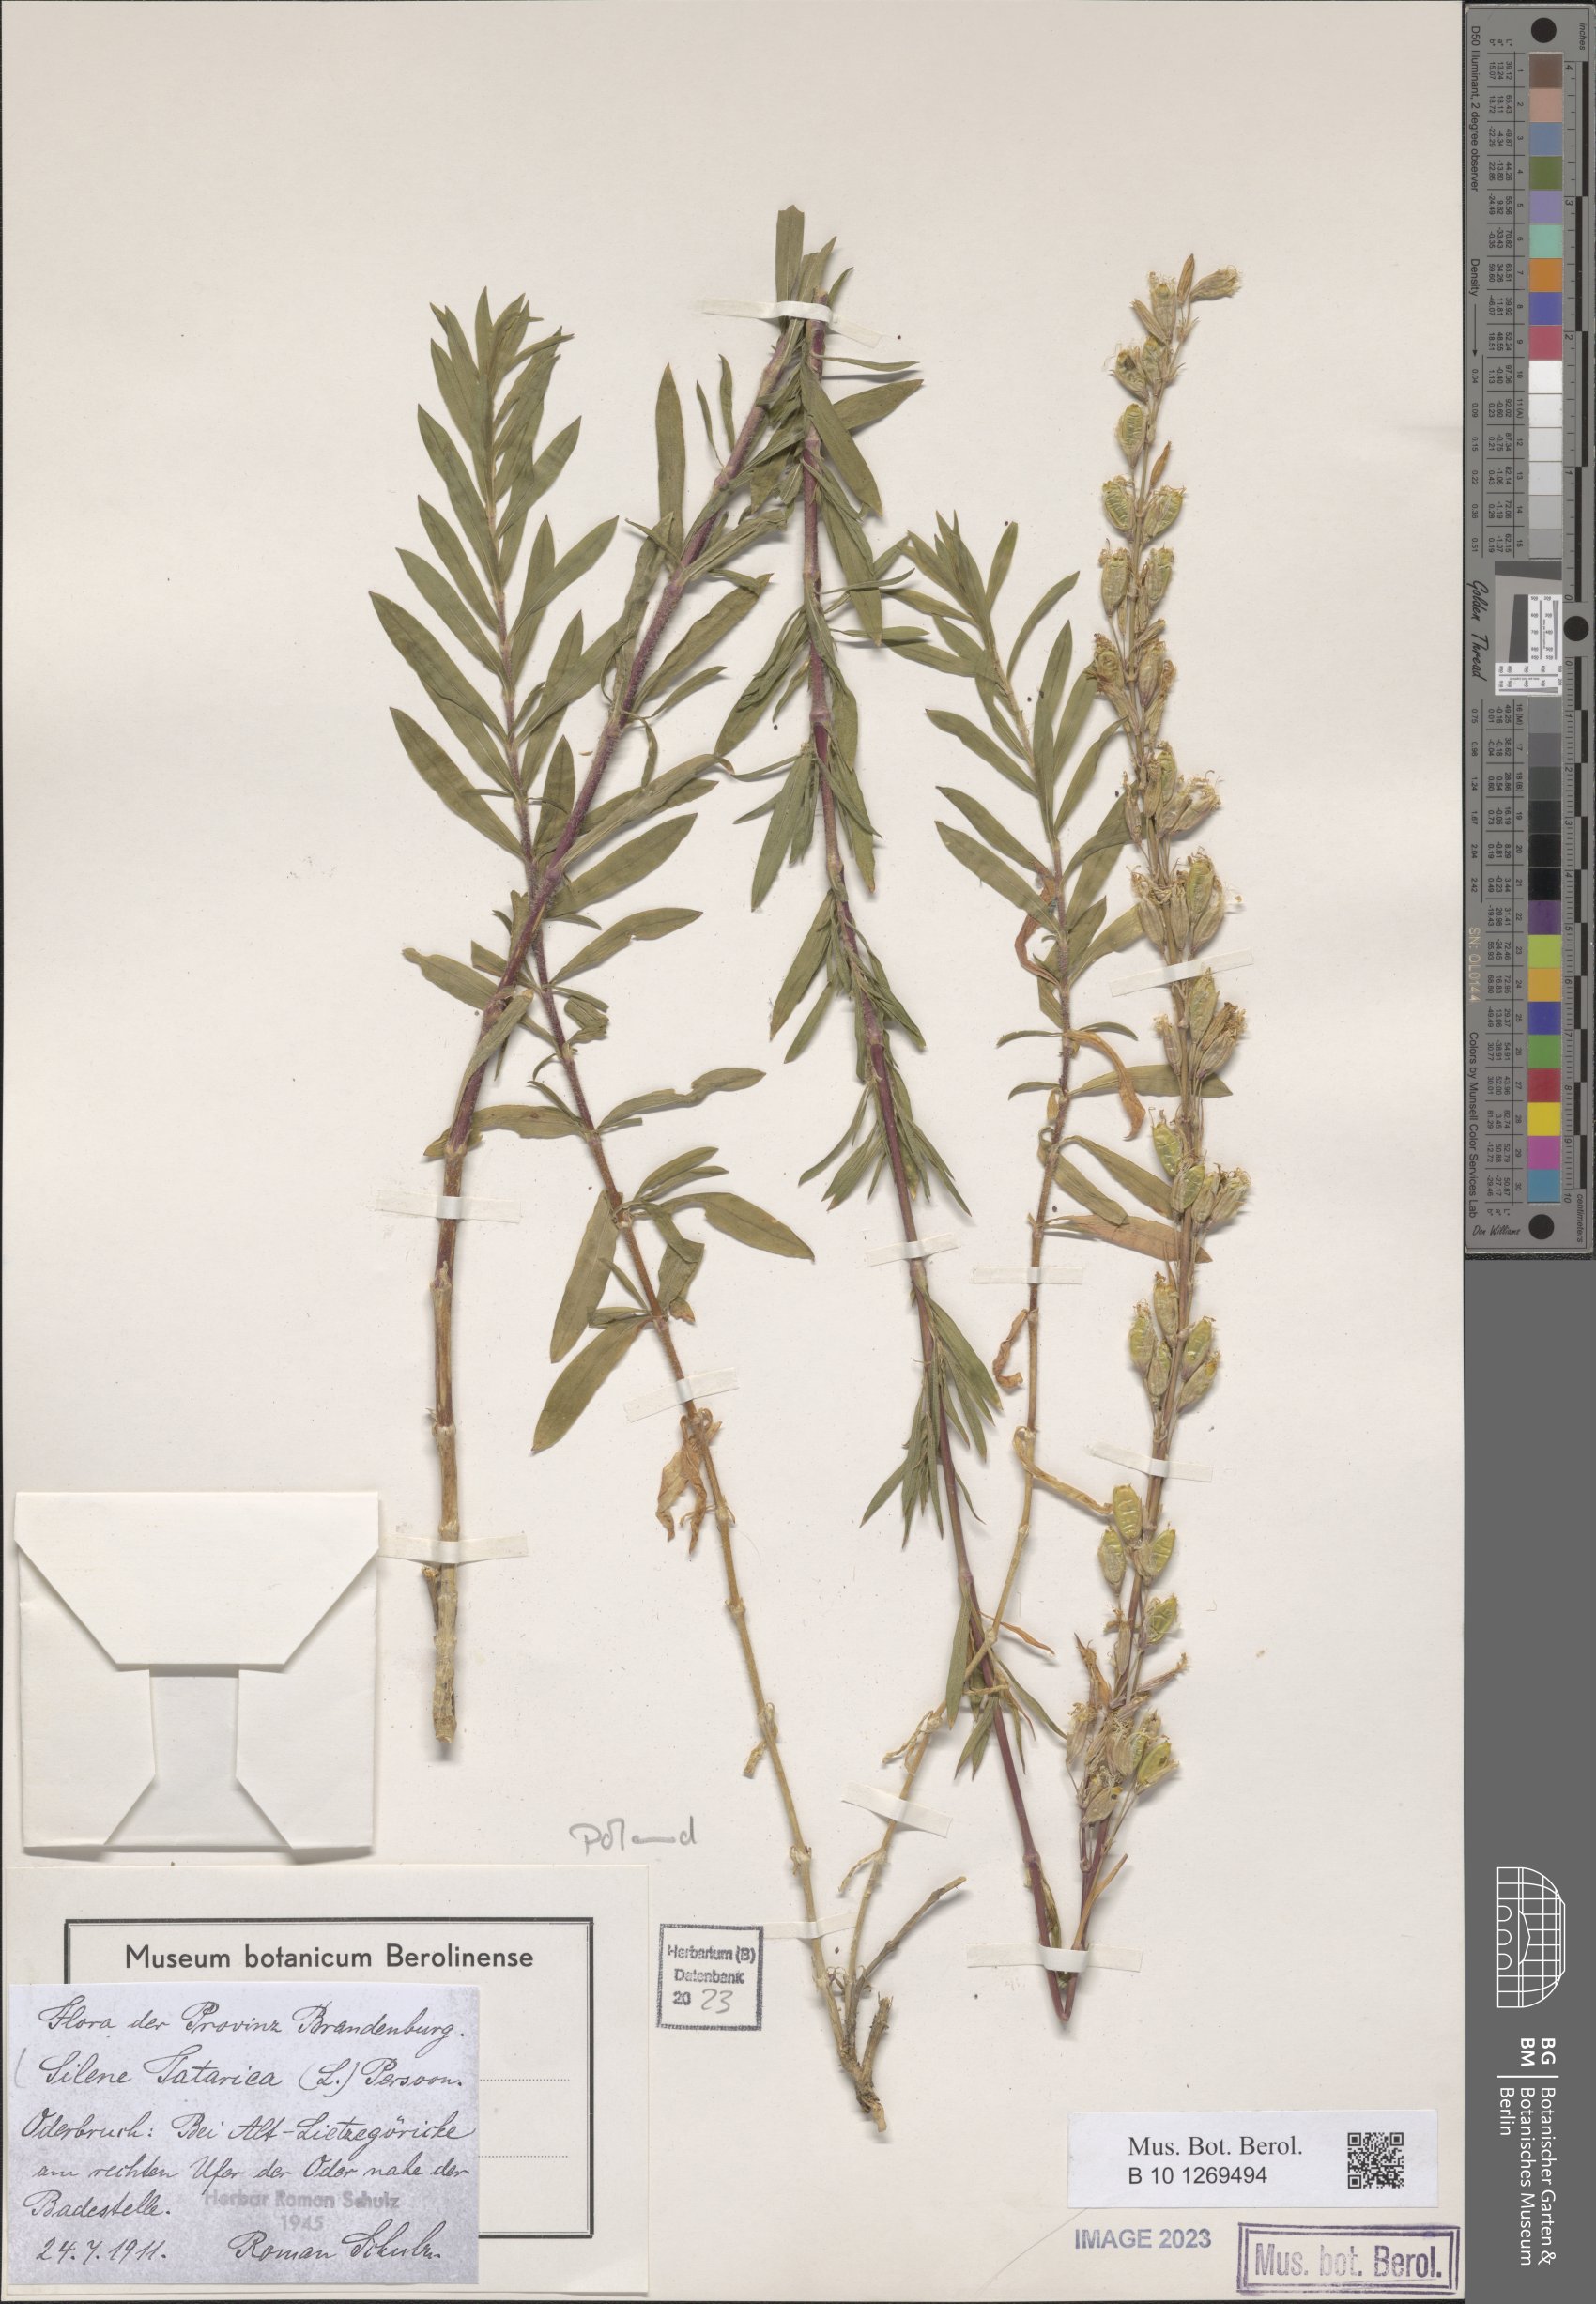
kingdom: Plantae
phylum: Tracheophyta
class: Magnoliopsida
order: Caryophyllales
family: Caryophyllaceae
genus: Silene
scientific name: Silene tatarica
